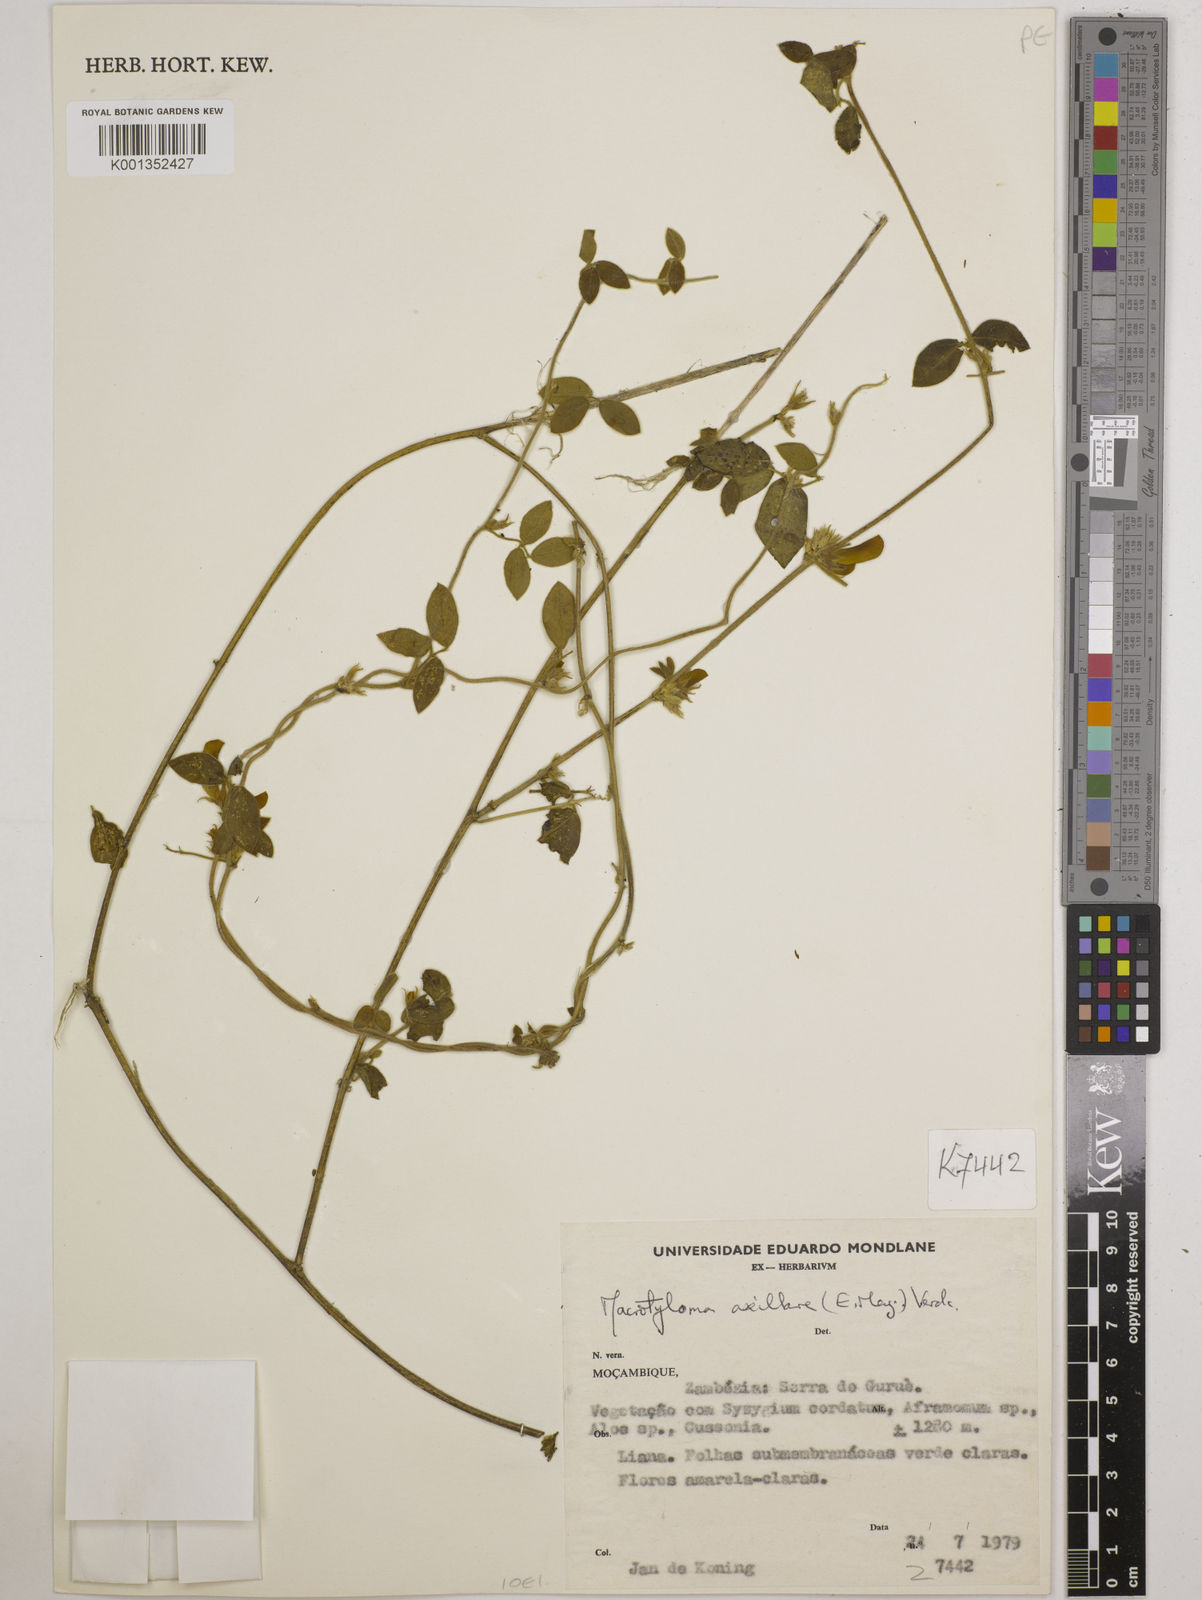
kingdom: Plantae
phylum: Tracheophyta
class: Magnoliopsida
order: Fabales
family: Fabaceae
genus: Macrotyloma
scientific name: Macrotyloma axillare
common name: Perennial horsegram
